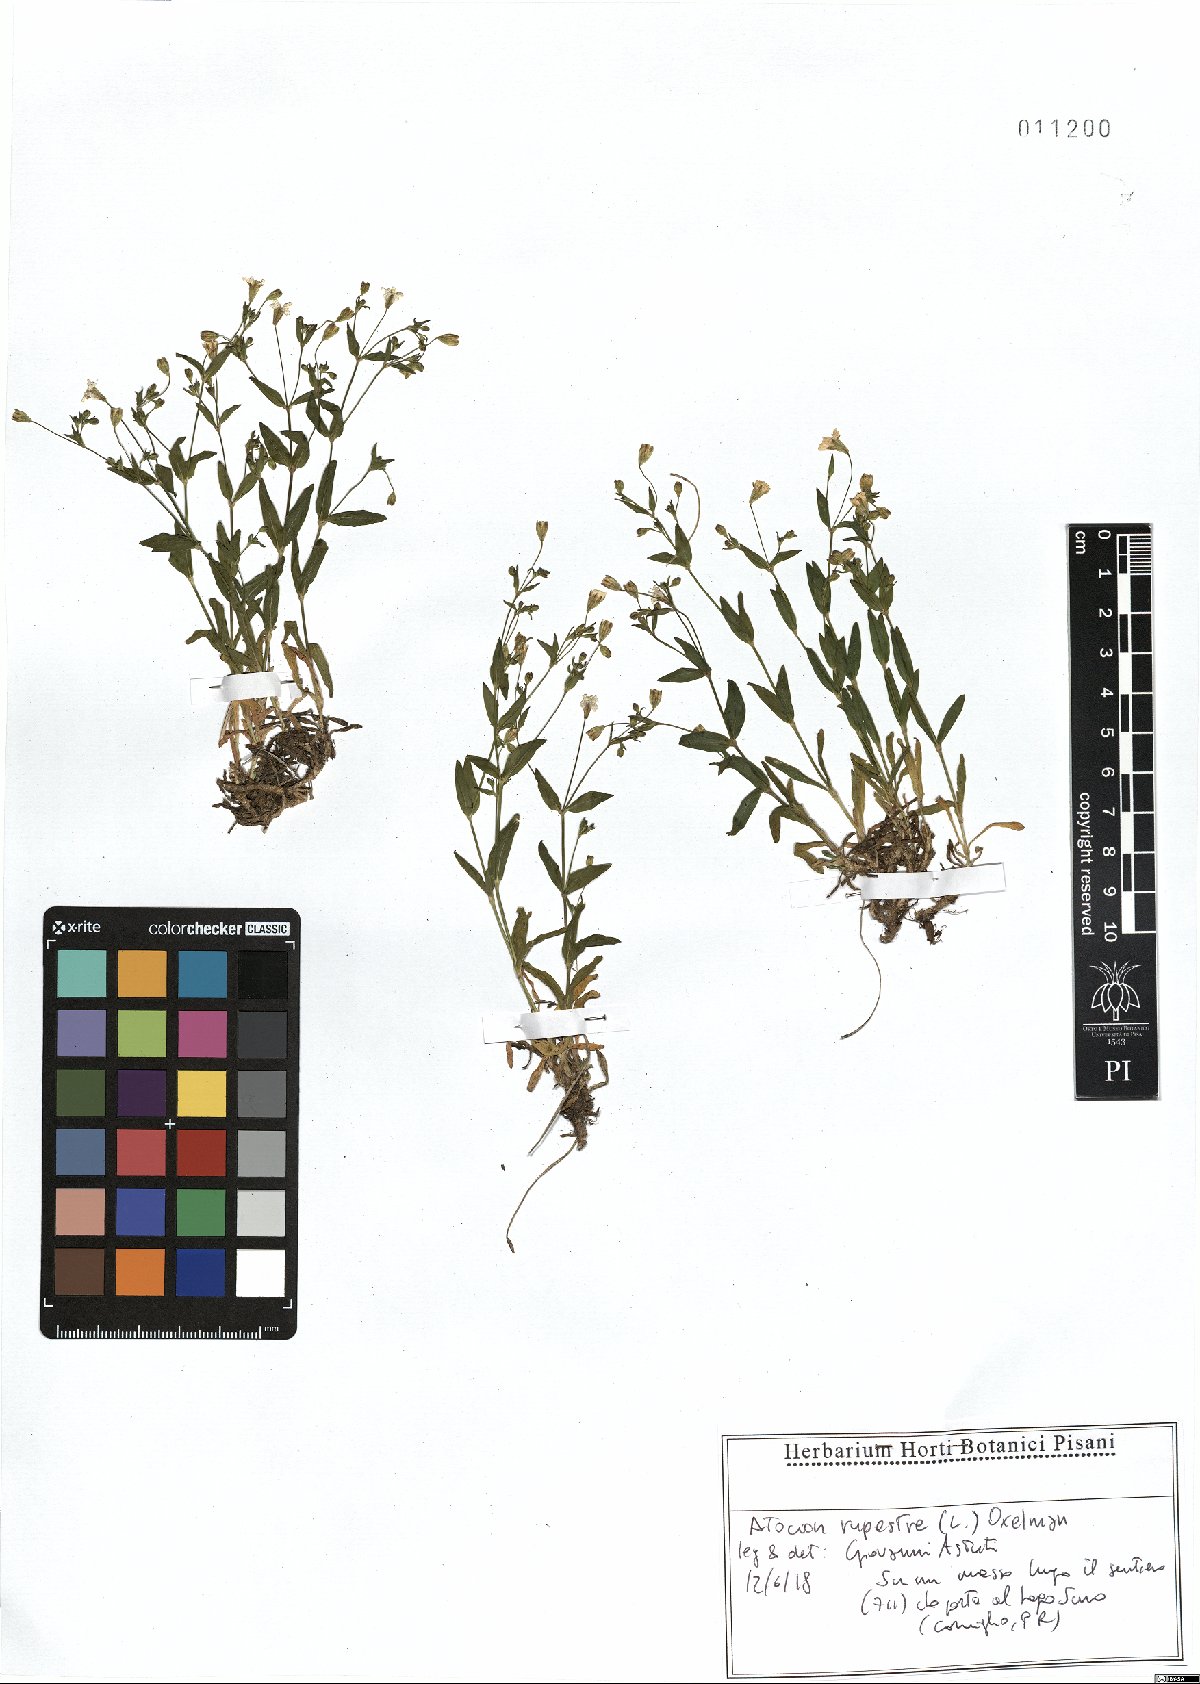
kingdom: Plantae
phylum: Tracheophyta
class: Magnoliopsida
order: Caryophyllales
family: Caryophyllaceae
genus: Atocion
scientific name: Atocion rupestre
